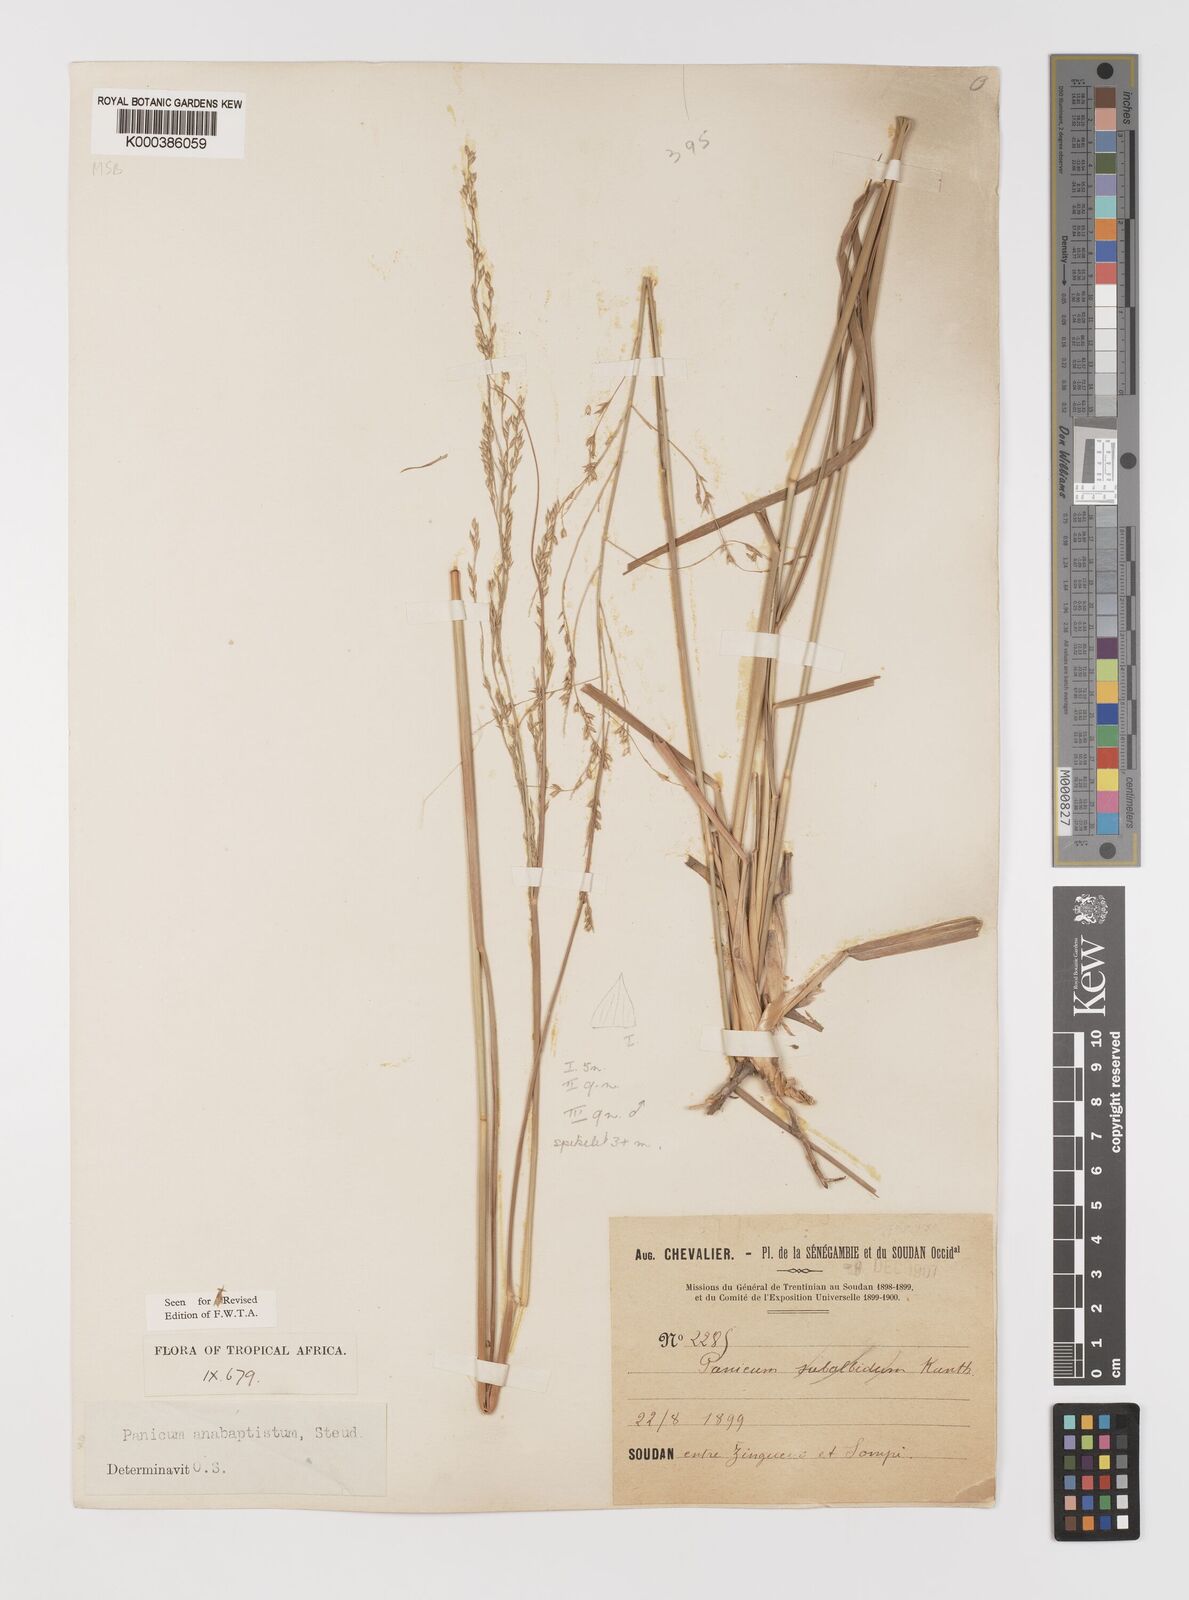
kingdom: Plantae
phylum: Tracheophyta
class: Liliopsida
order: Poales
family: Poaceae
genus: Panicum
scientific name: Panicum anabaptistum
